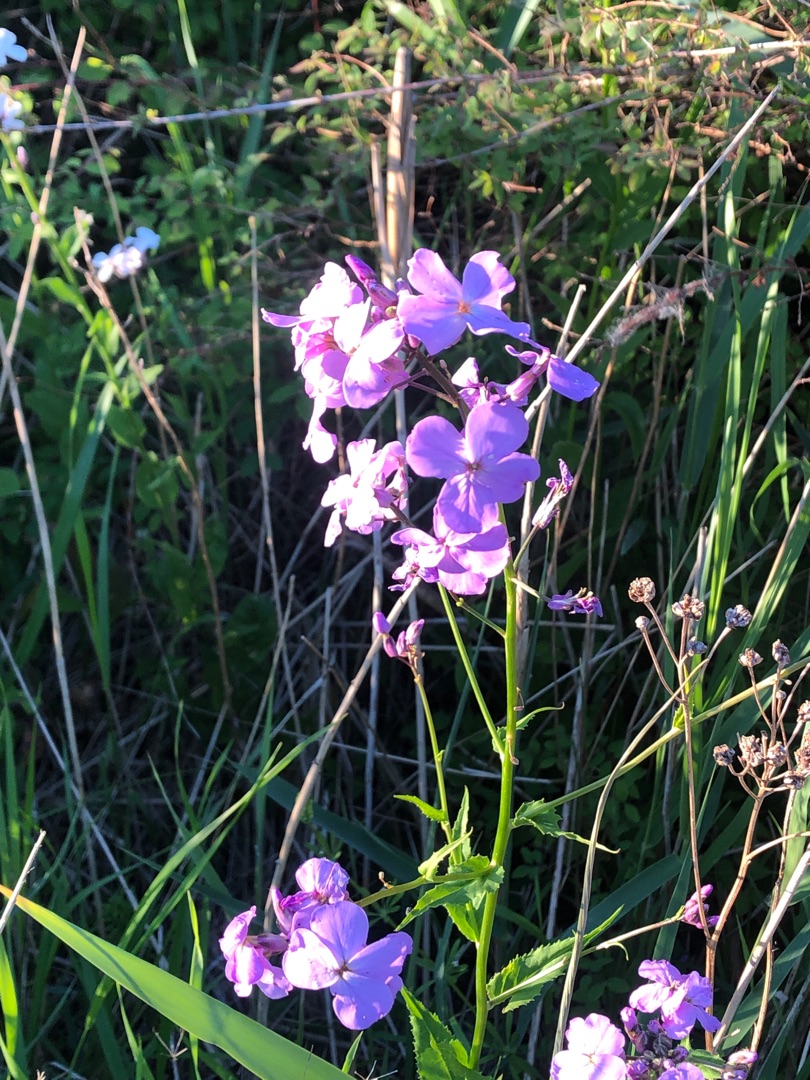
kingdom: Plantae
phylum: Tracheophyta
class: Magnoliopsida
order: Brassicales
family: Brassicaceae
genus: Hesperis
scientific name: Hesperis matronalis
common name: Aftenstjerne
